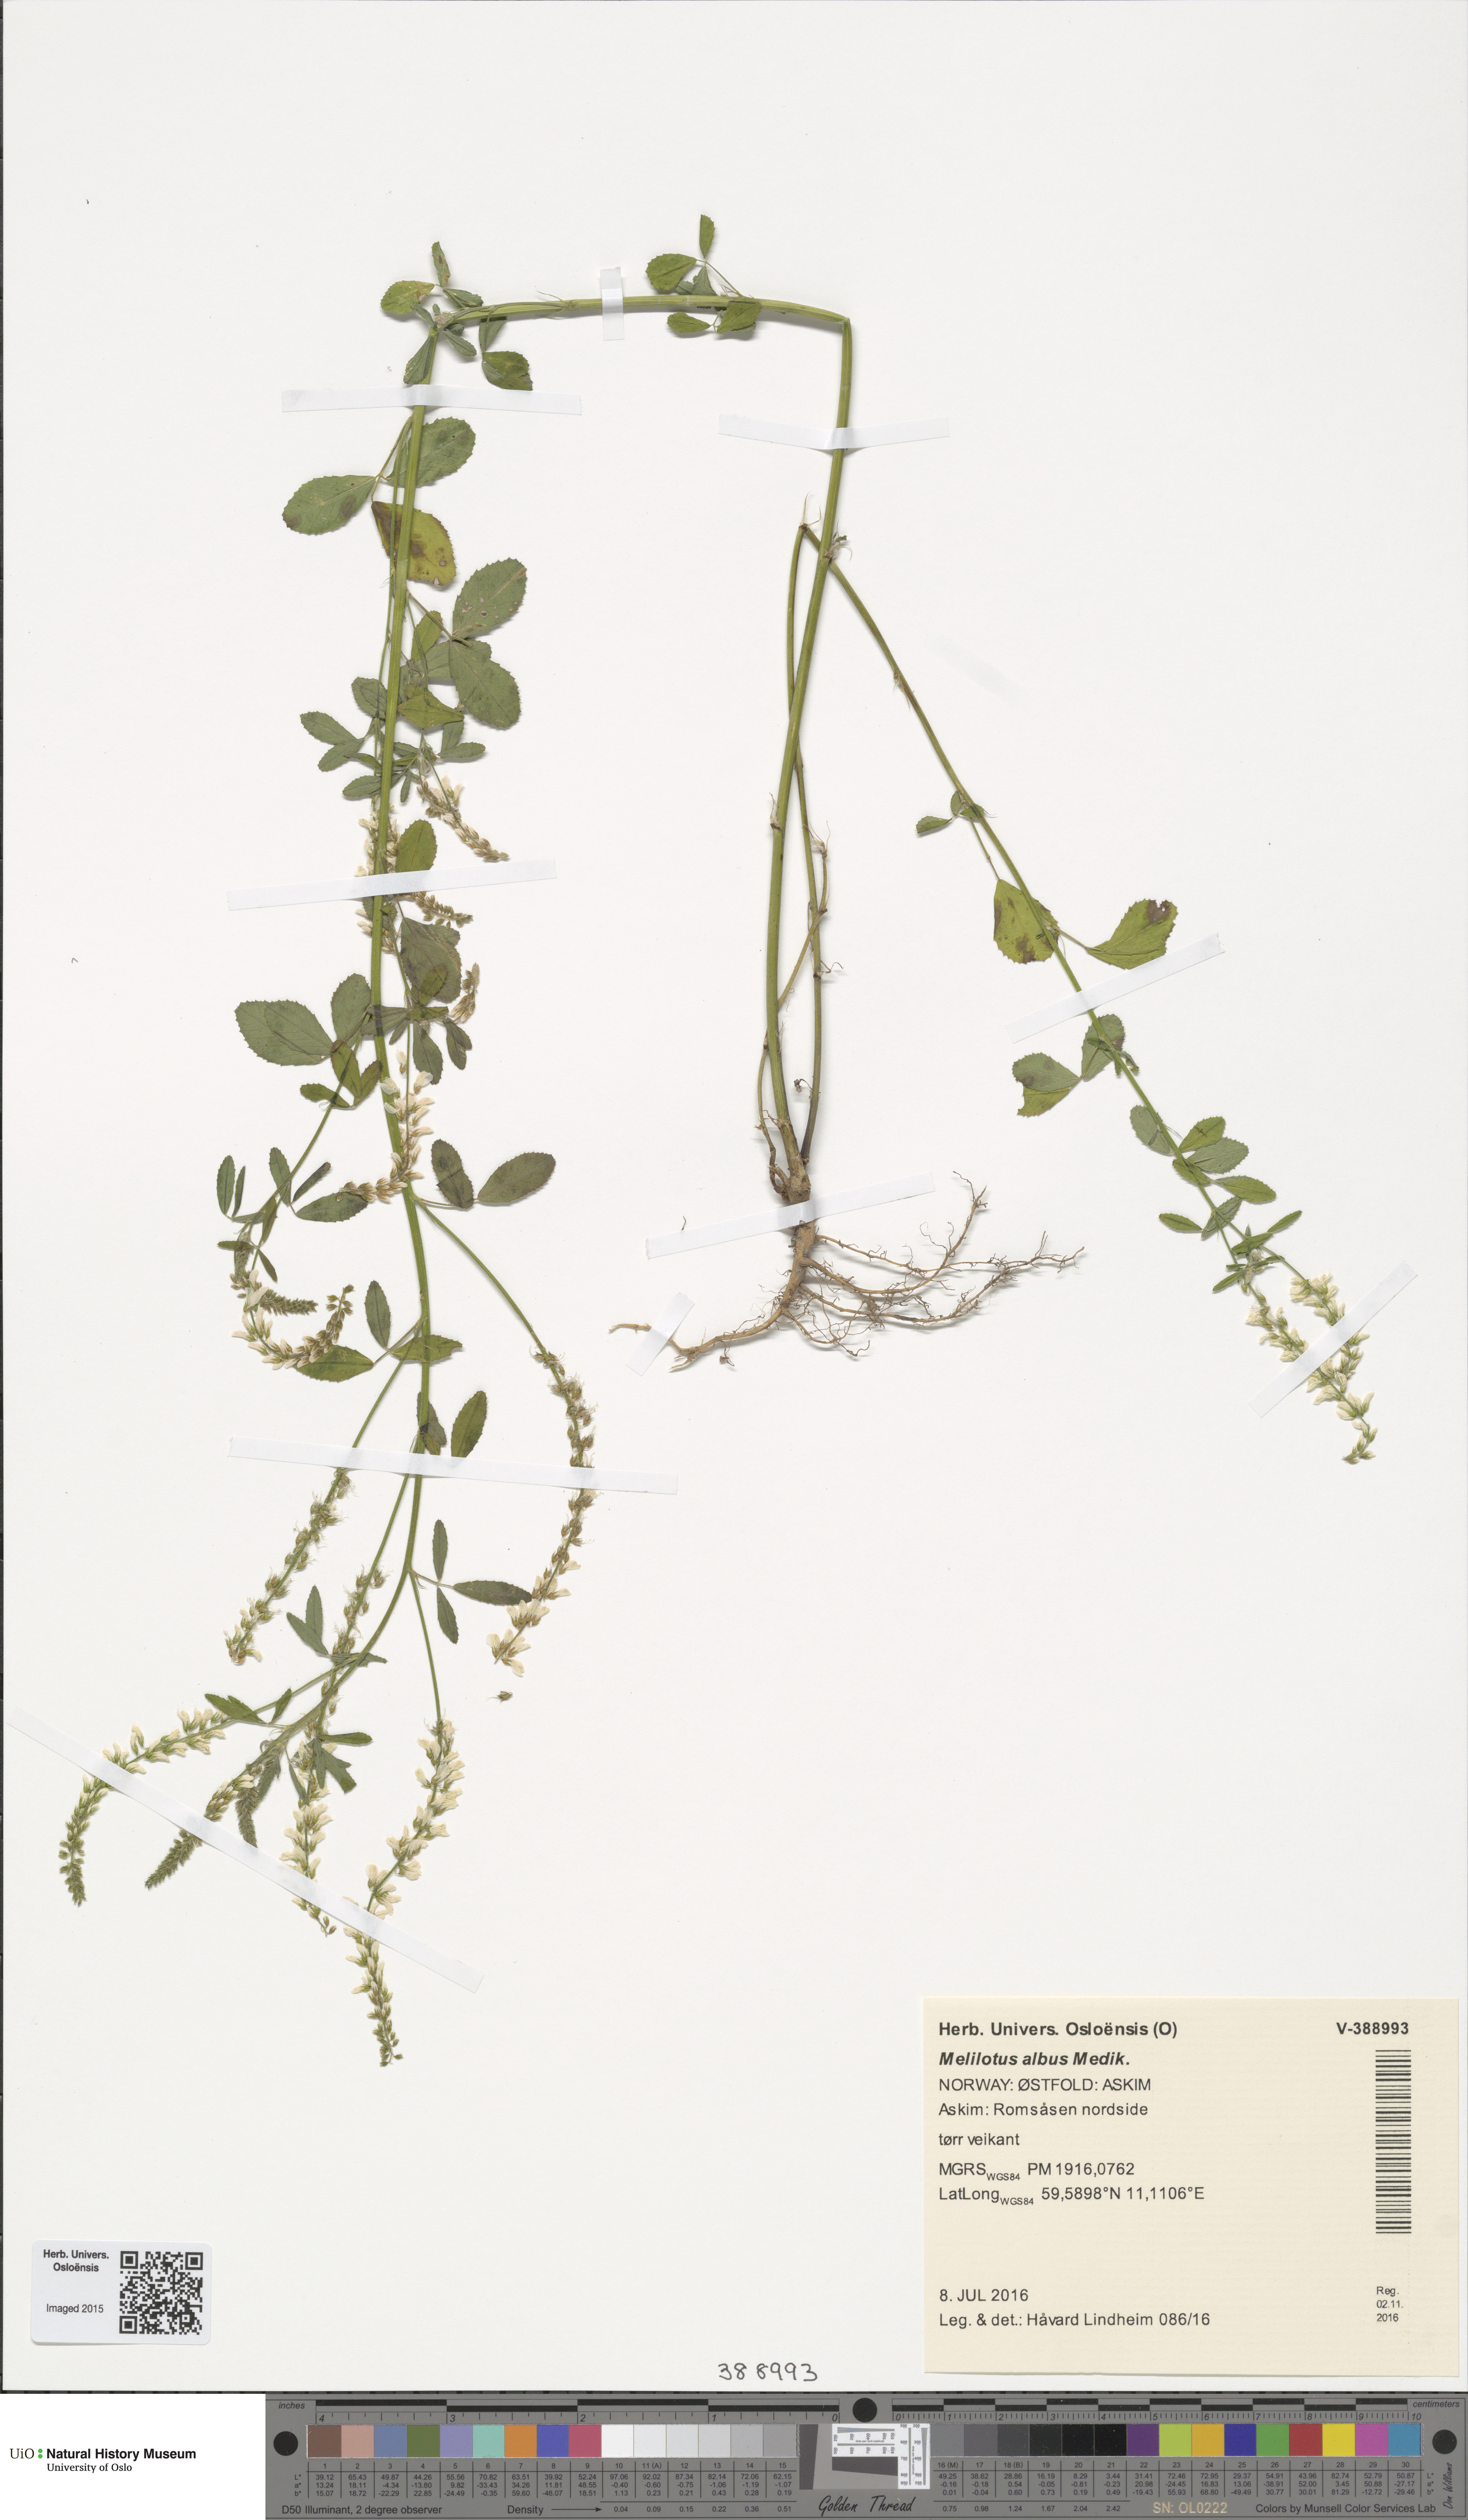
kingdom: Plantae
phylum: Tracheophyta
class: Magnoliopsida
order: Fabales
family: Fabaceae
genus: Melilotus
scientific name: Melilotus albus
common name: White melilot
